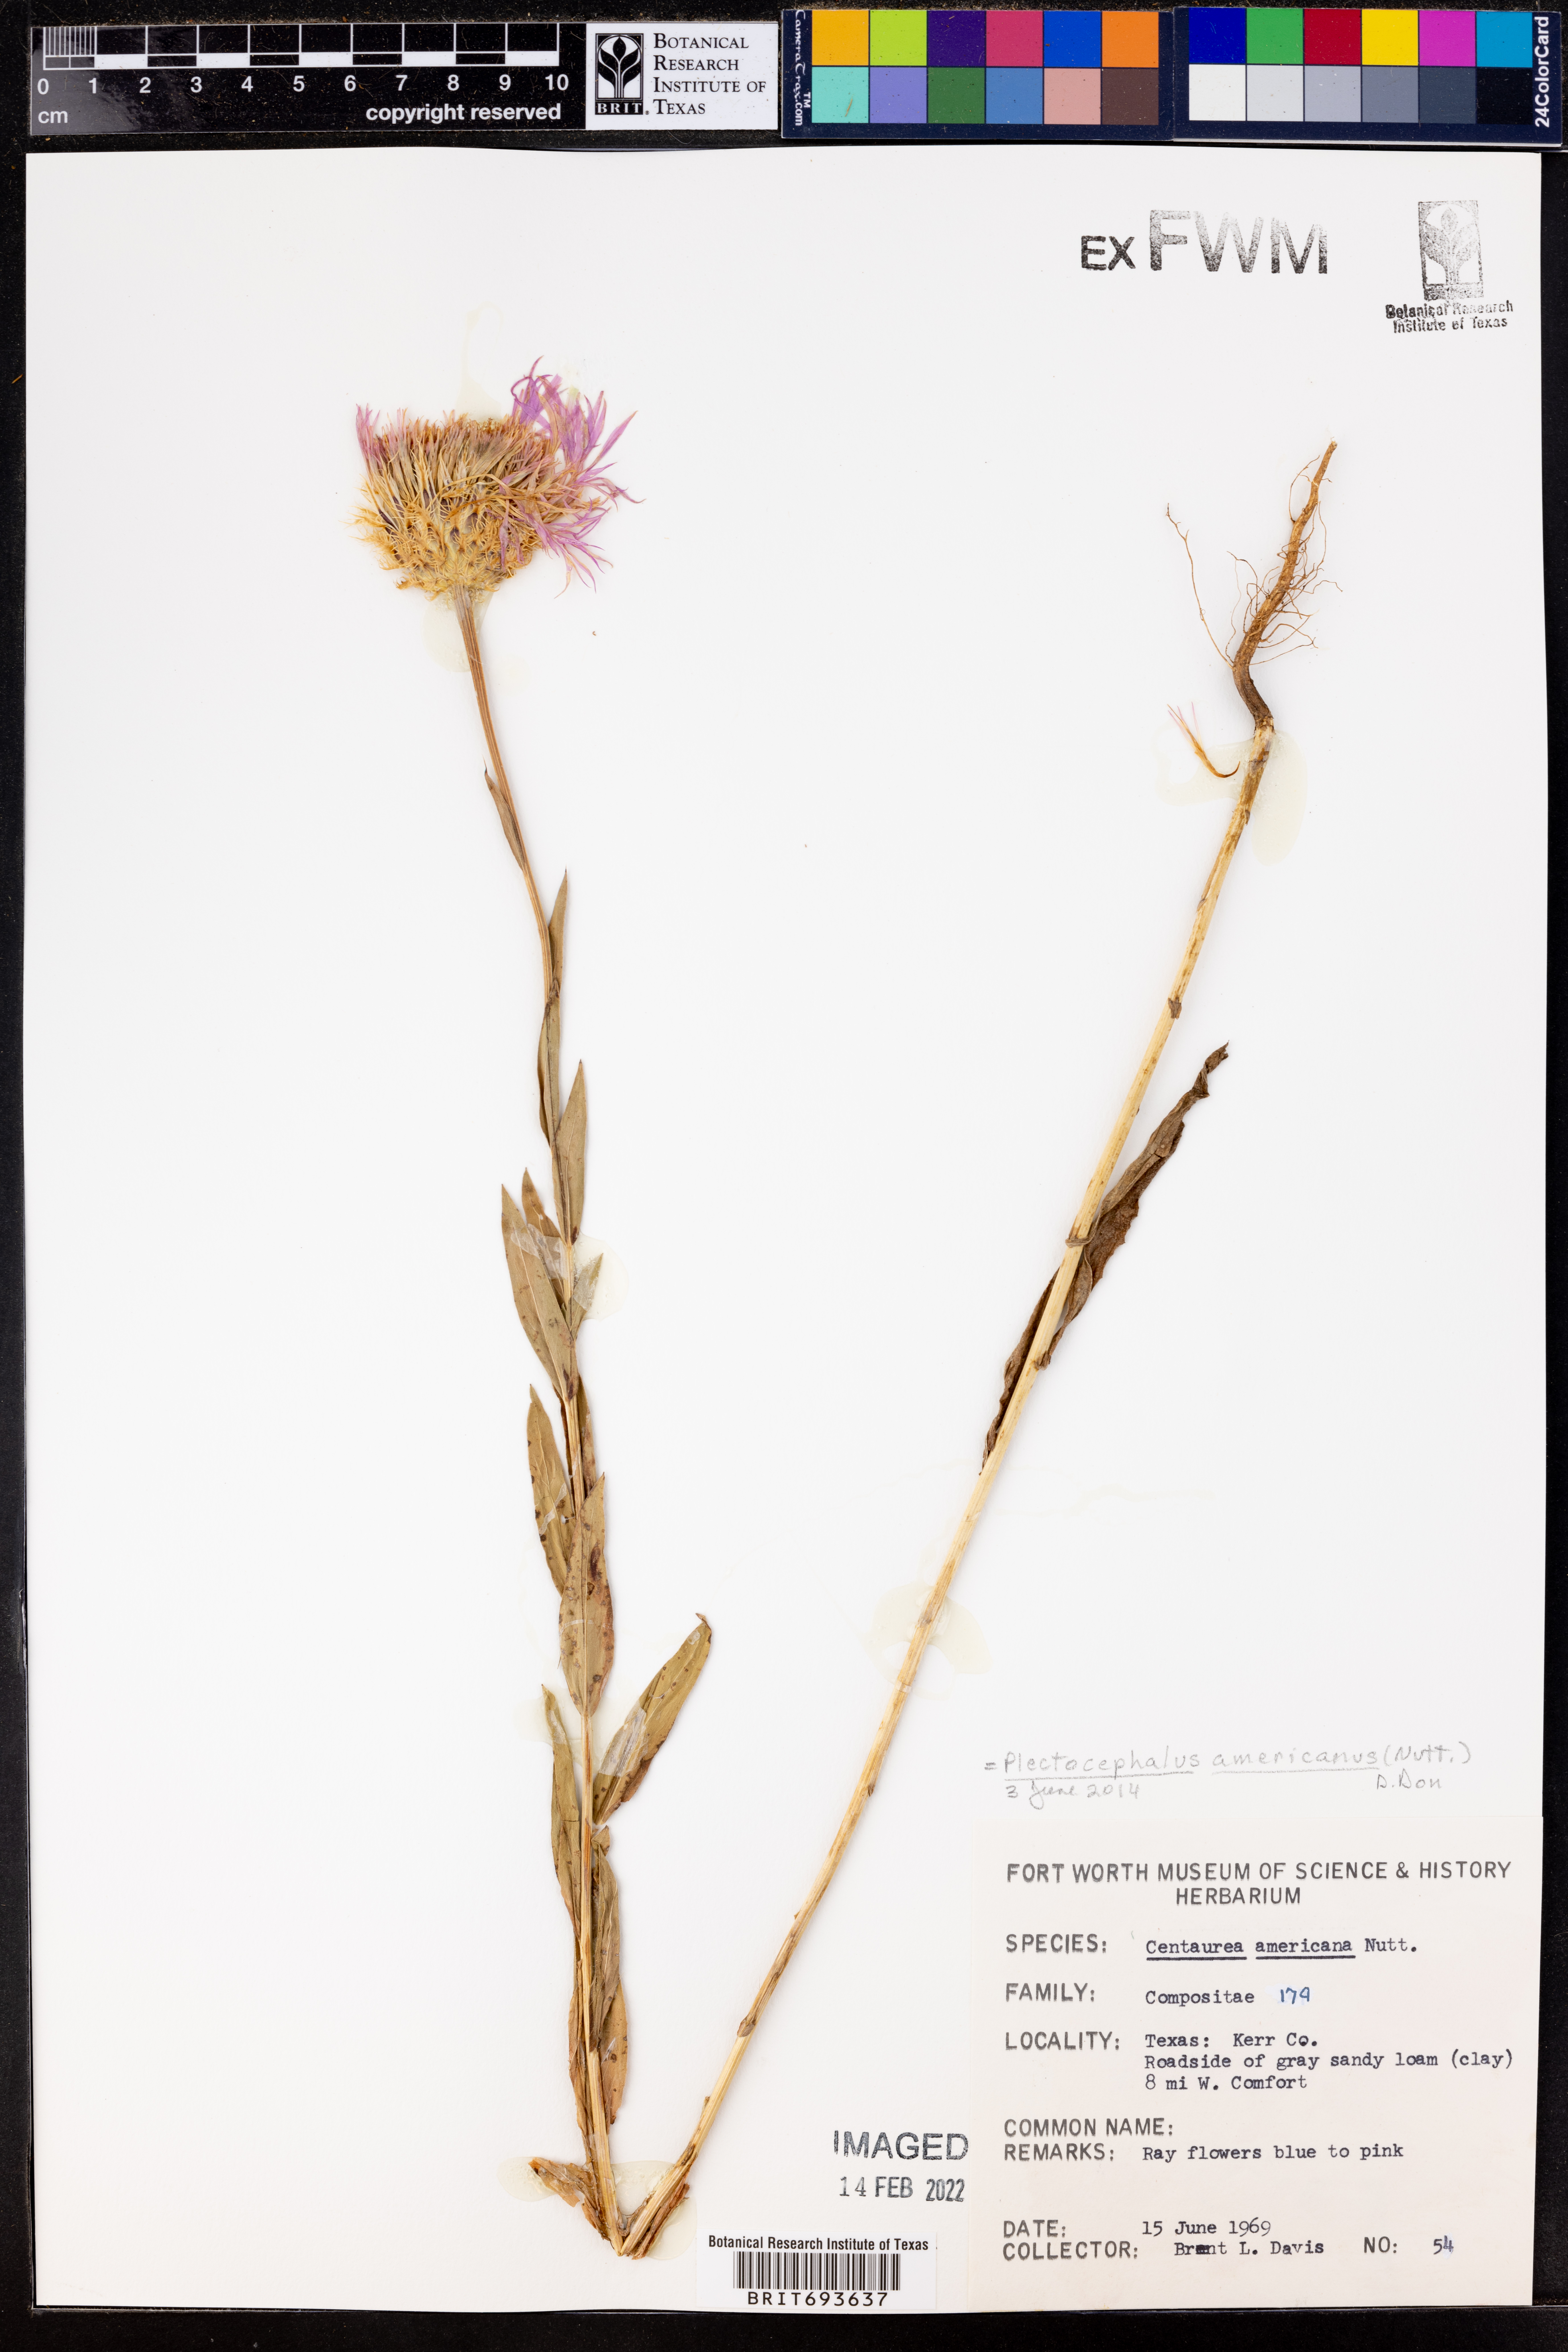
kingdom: Plantae
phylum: Tracheophyta
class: Magnoliopsida
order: Asterales
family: Asteraceae
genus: Plectocephalus
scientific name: Plectocephalus americanus
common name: American basket-flower
